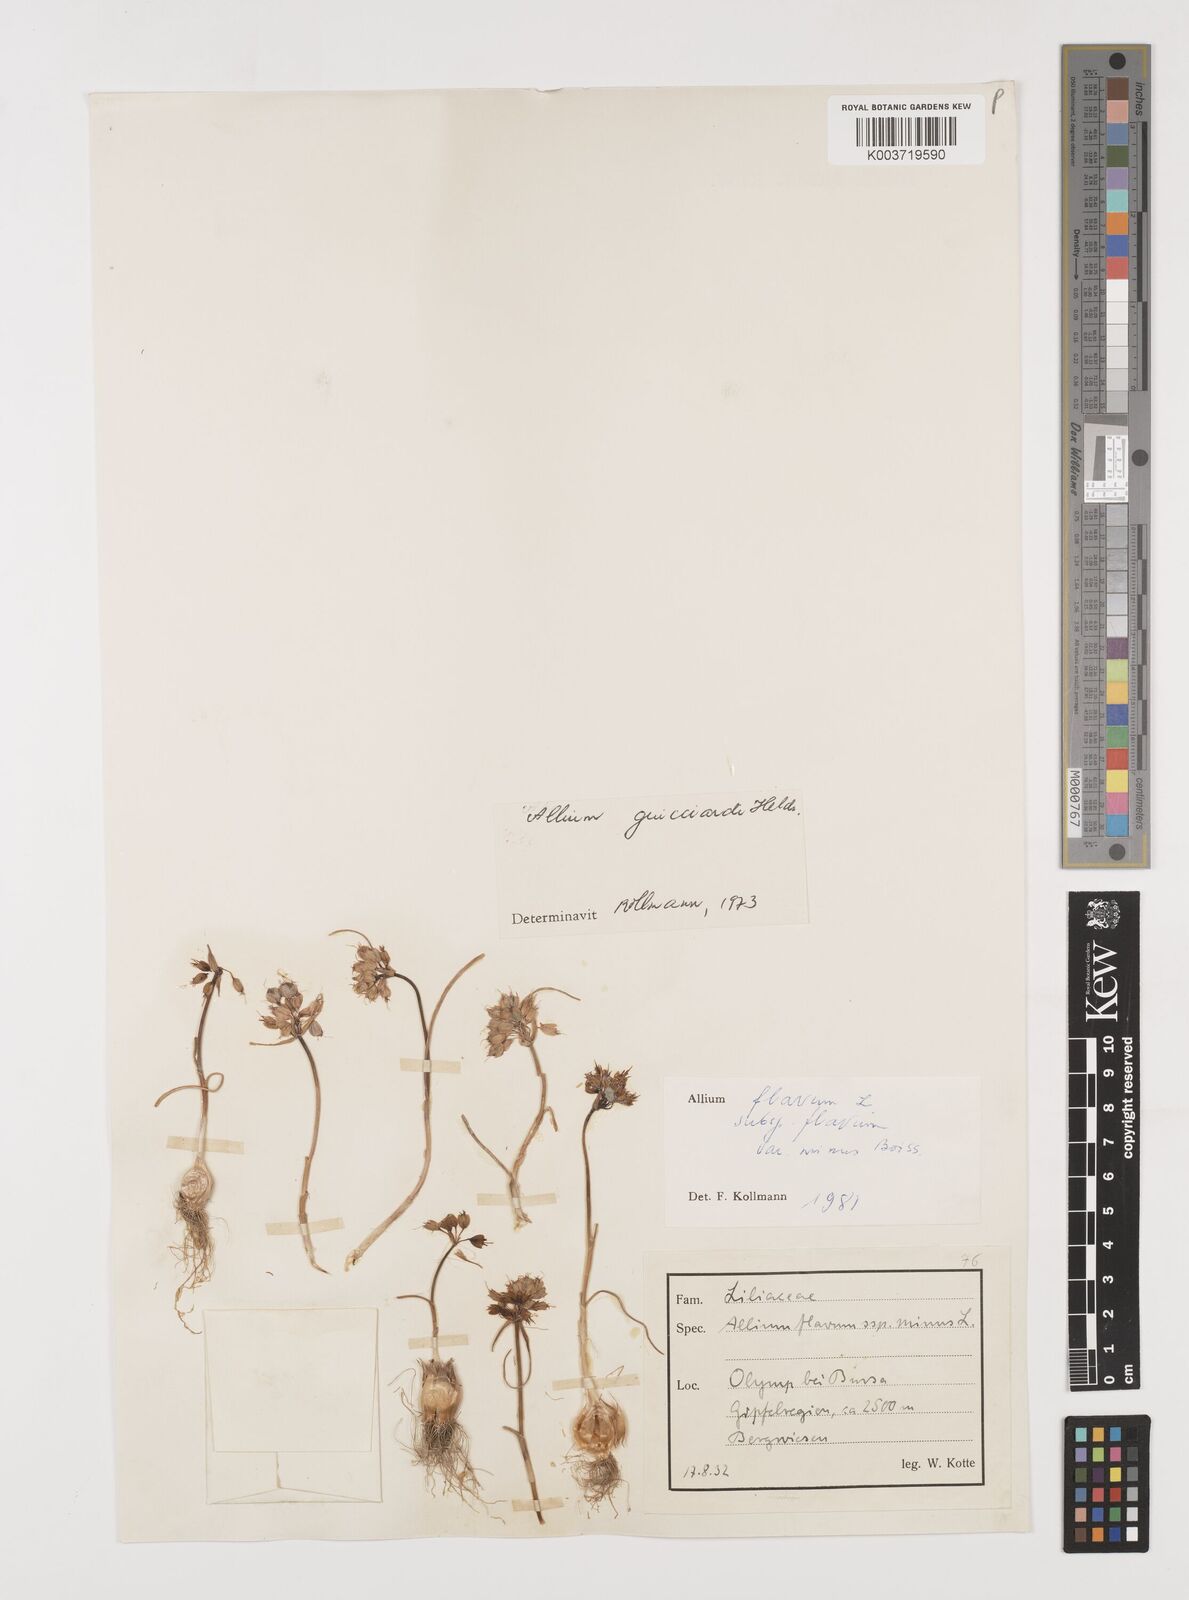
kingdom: Plantae
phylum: Tracheophyta
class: Liliopsida
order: Asparagales
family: Amaryllidaceae
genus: Allium
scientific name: Allium guicciardii
